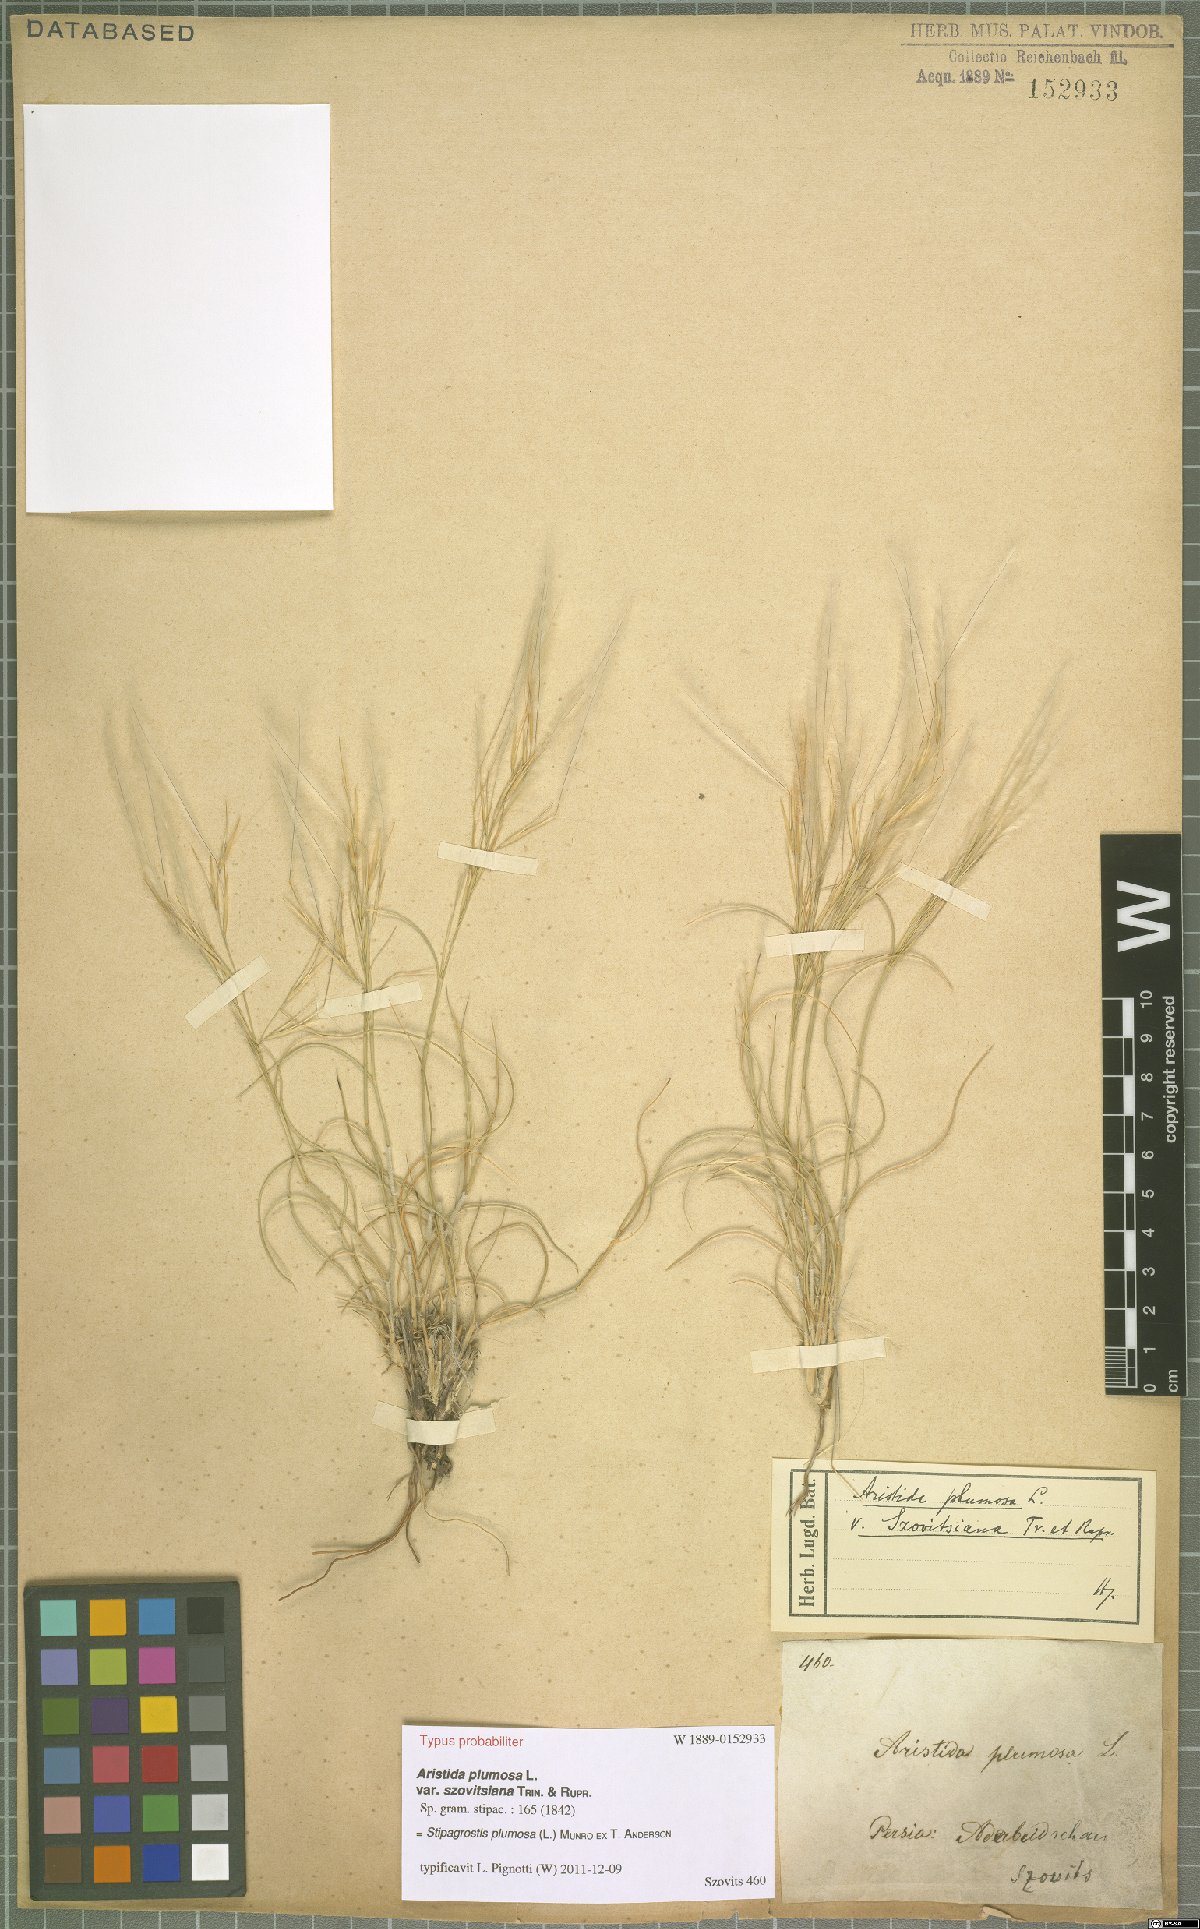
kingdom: Plantae
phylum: Tracheophyta
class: Liliopsida
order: Poales
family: Poaceae
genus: Stipagrostis
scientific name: Stipagrostis plumosa
